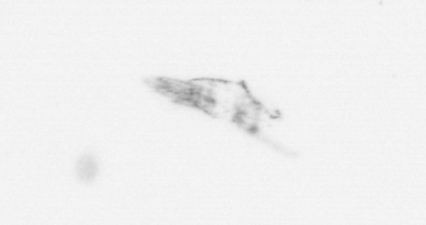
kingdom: Chromista
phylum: Ochrophyta
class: Bacillariophyceae
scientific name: Bacillariophyceae
